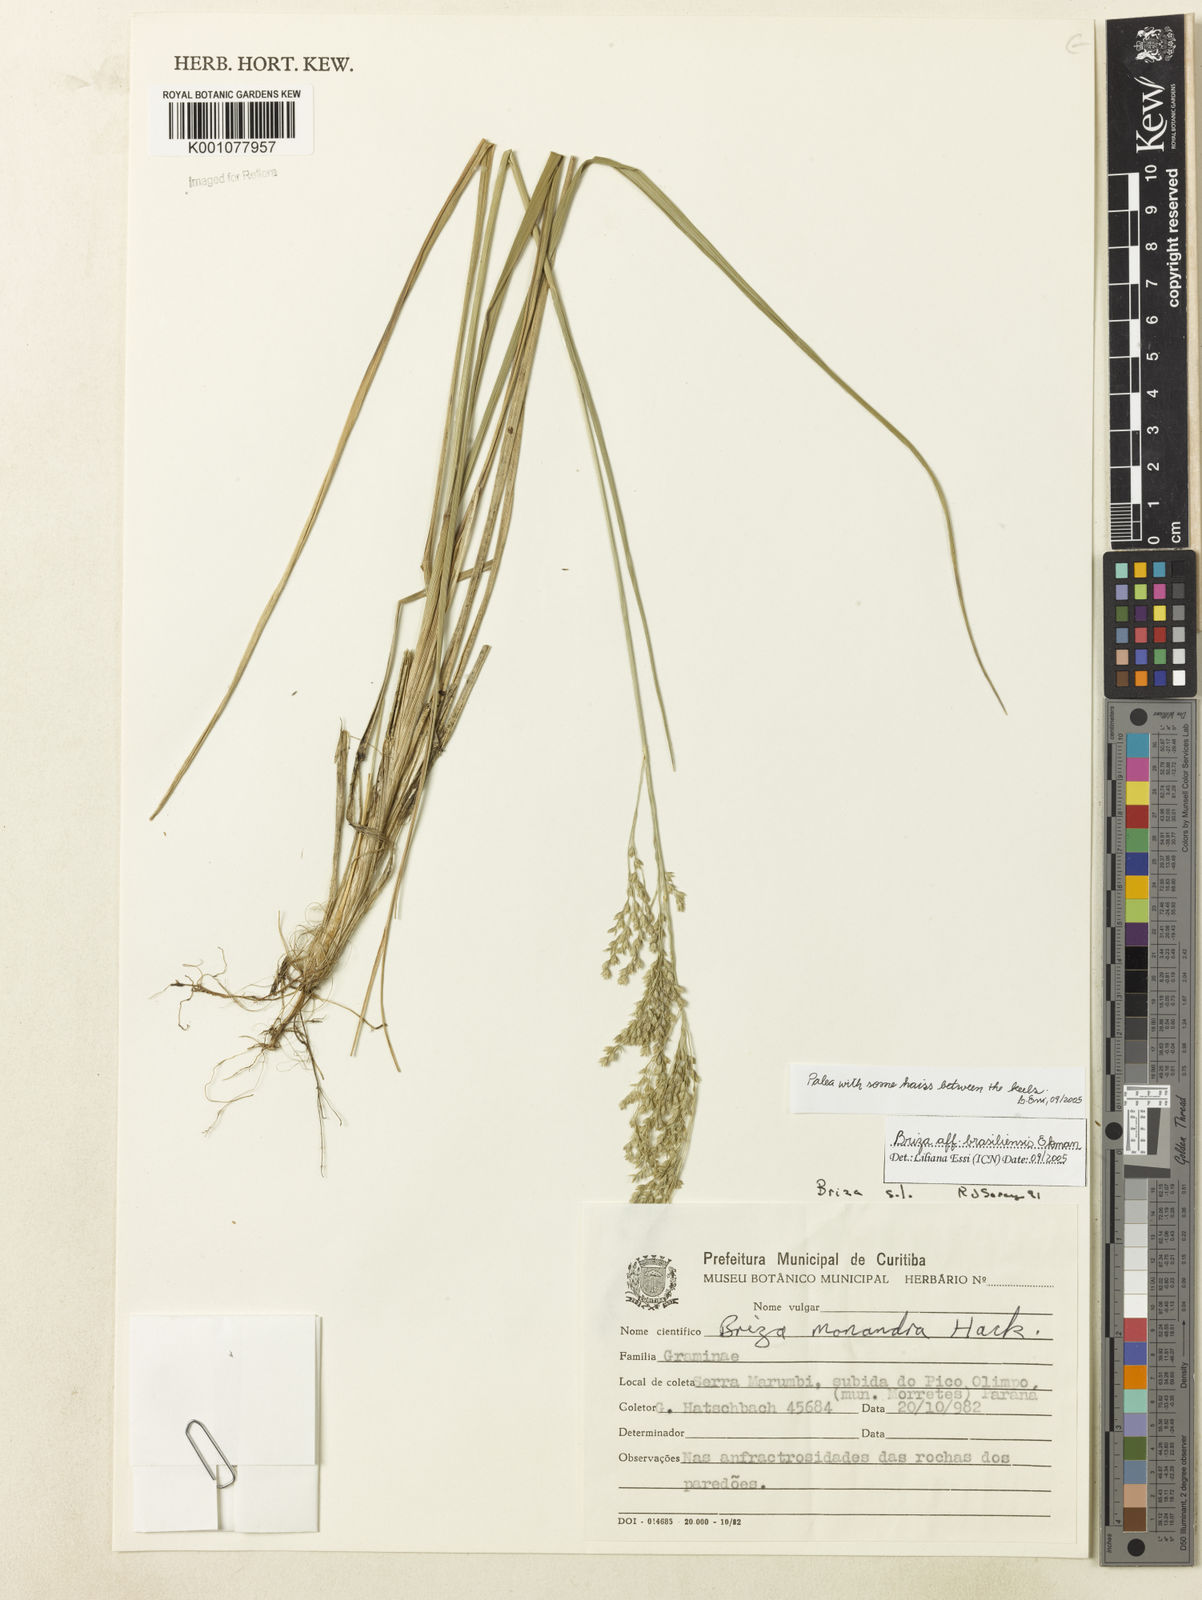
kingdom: Plantae
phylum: Tracheophyta
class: Liliopsida
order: Poales
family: Poaceae
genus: Poidium
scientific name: Poidium brasiliense
